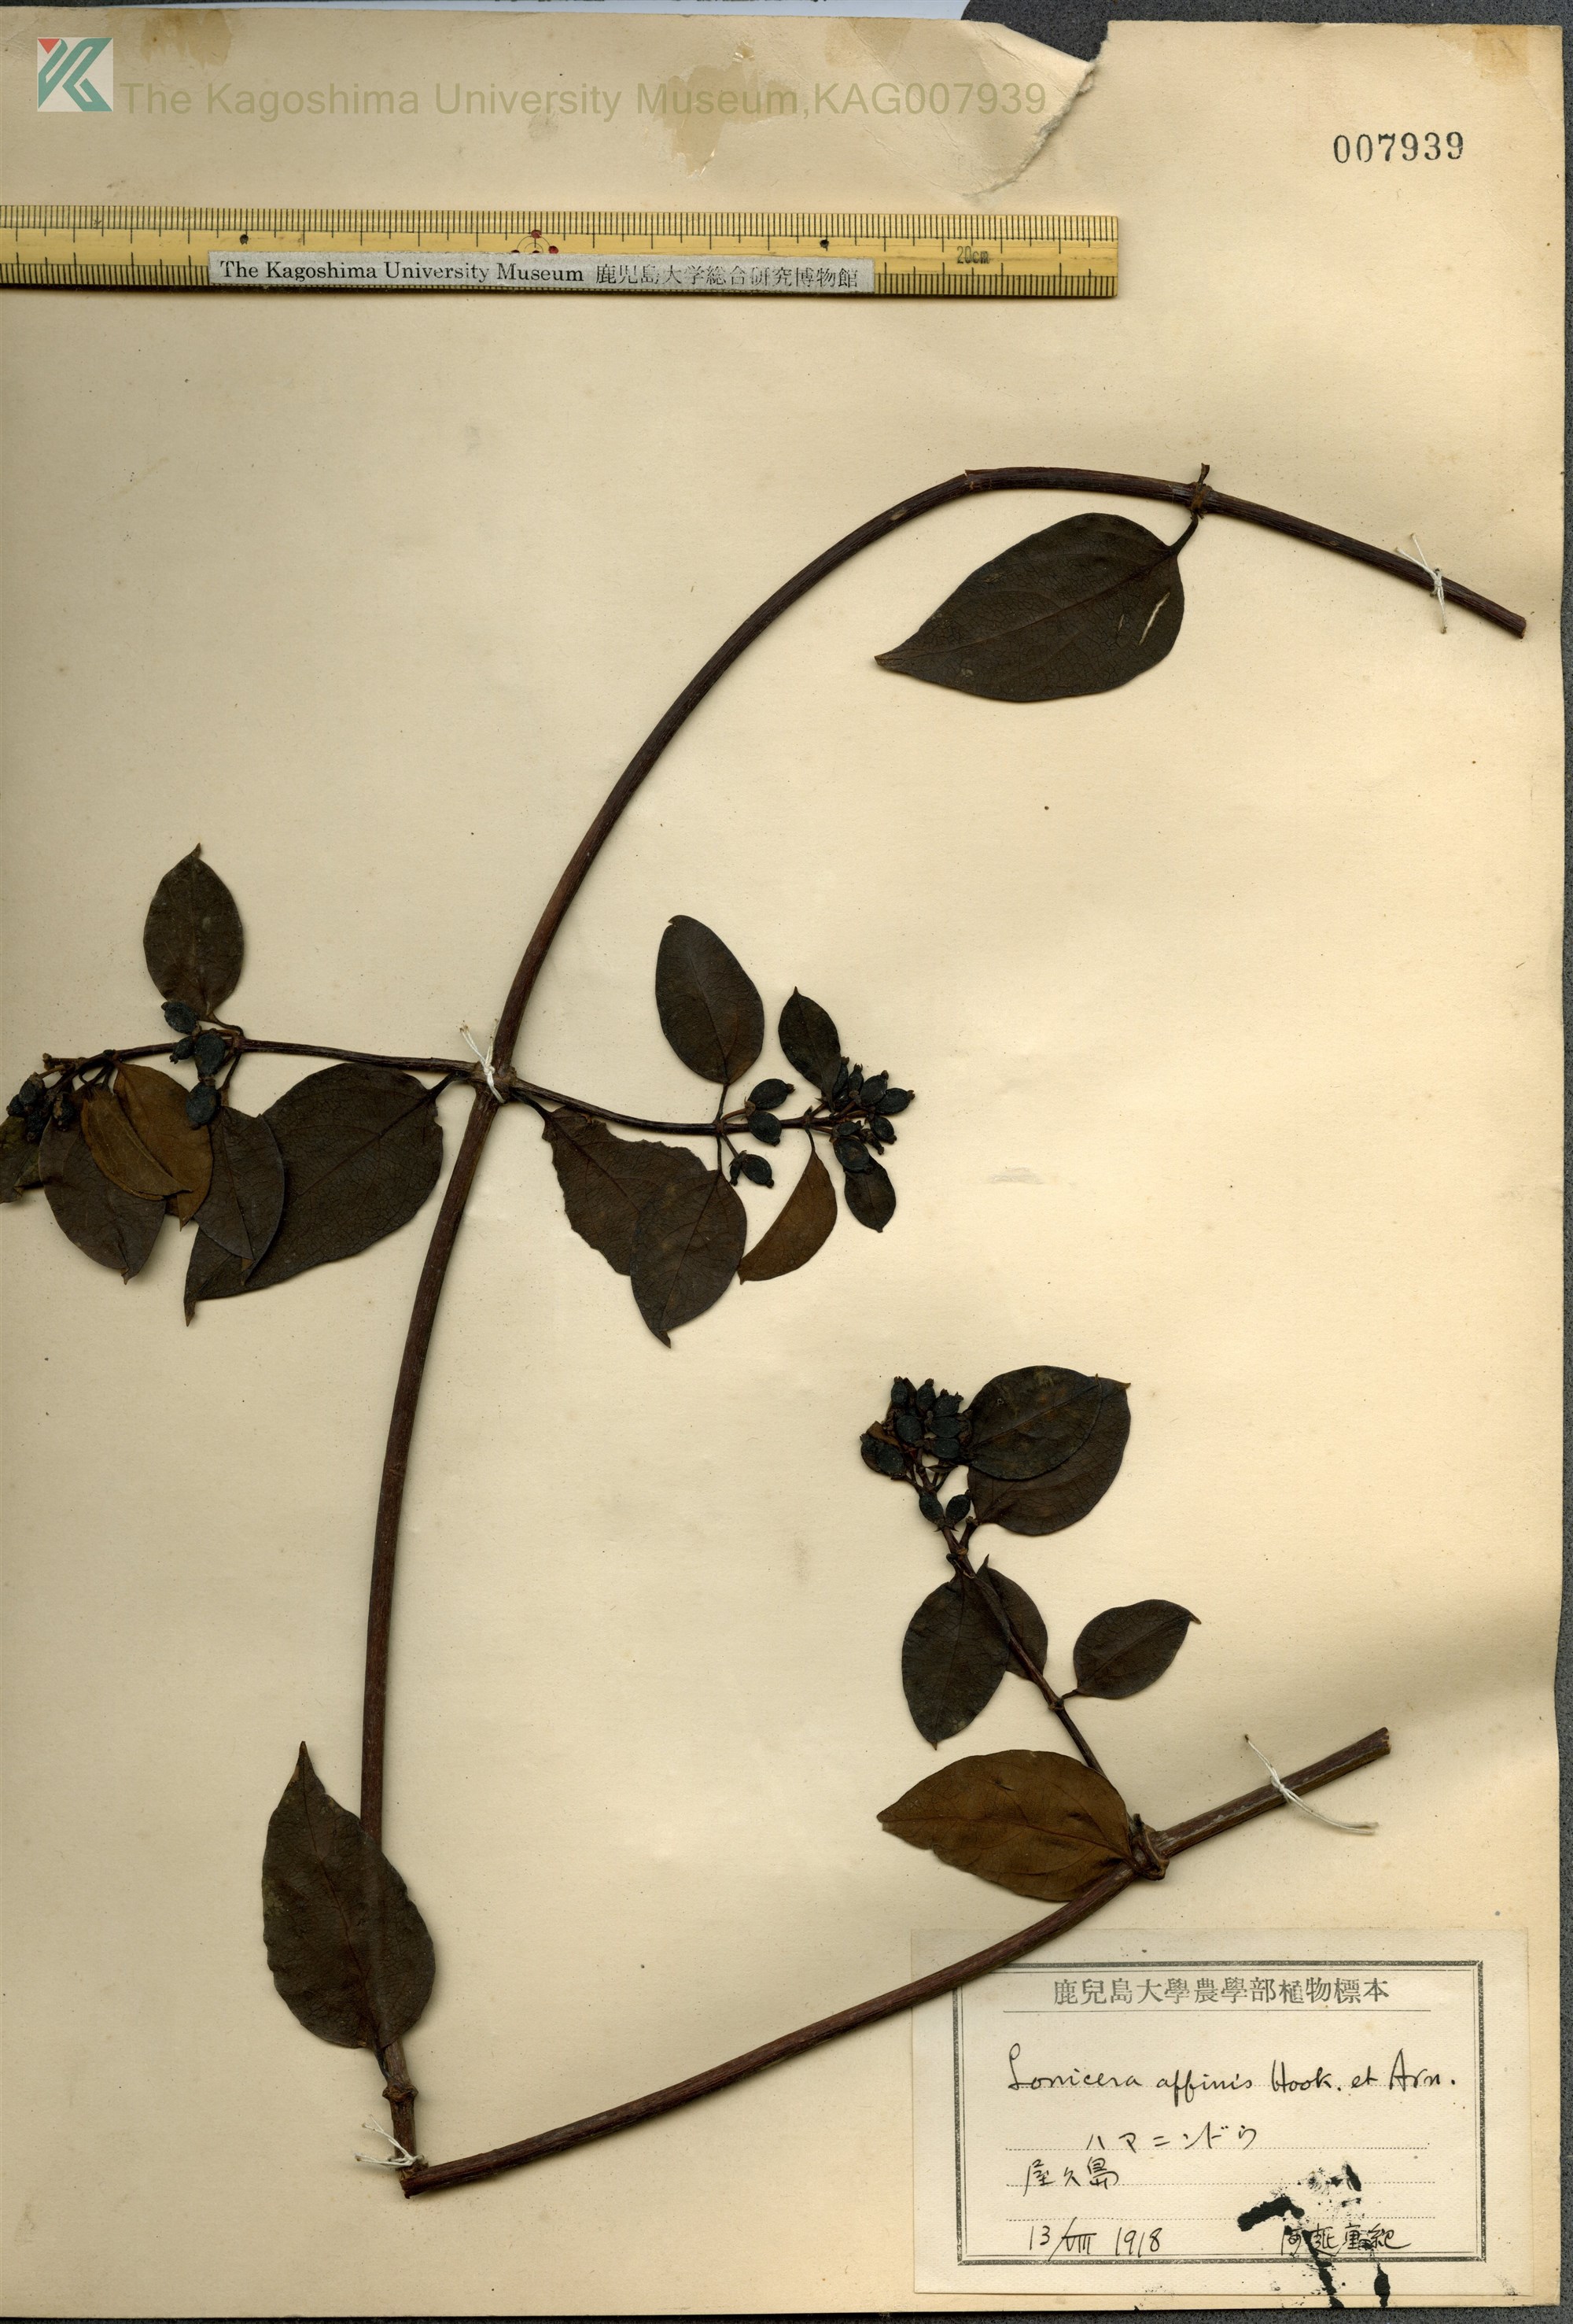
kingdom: Plantae
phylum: Tracheophyta
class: Magnoliopsida
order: Dipsacales
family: Caprifoliaceae
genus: Lonicera
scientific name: Lonicera affinis
